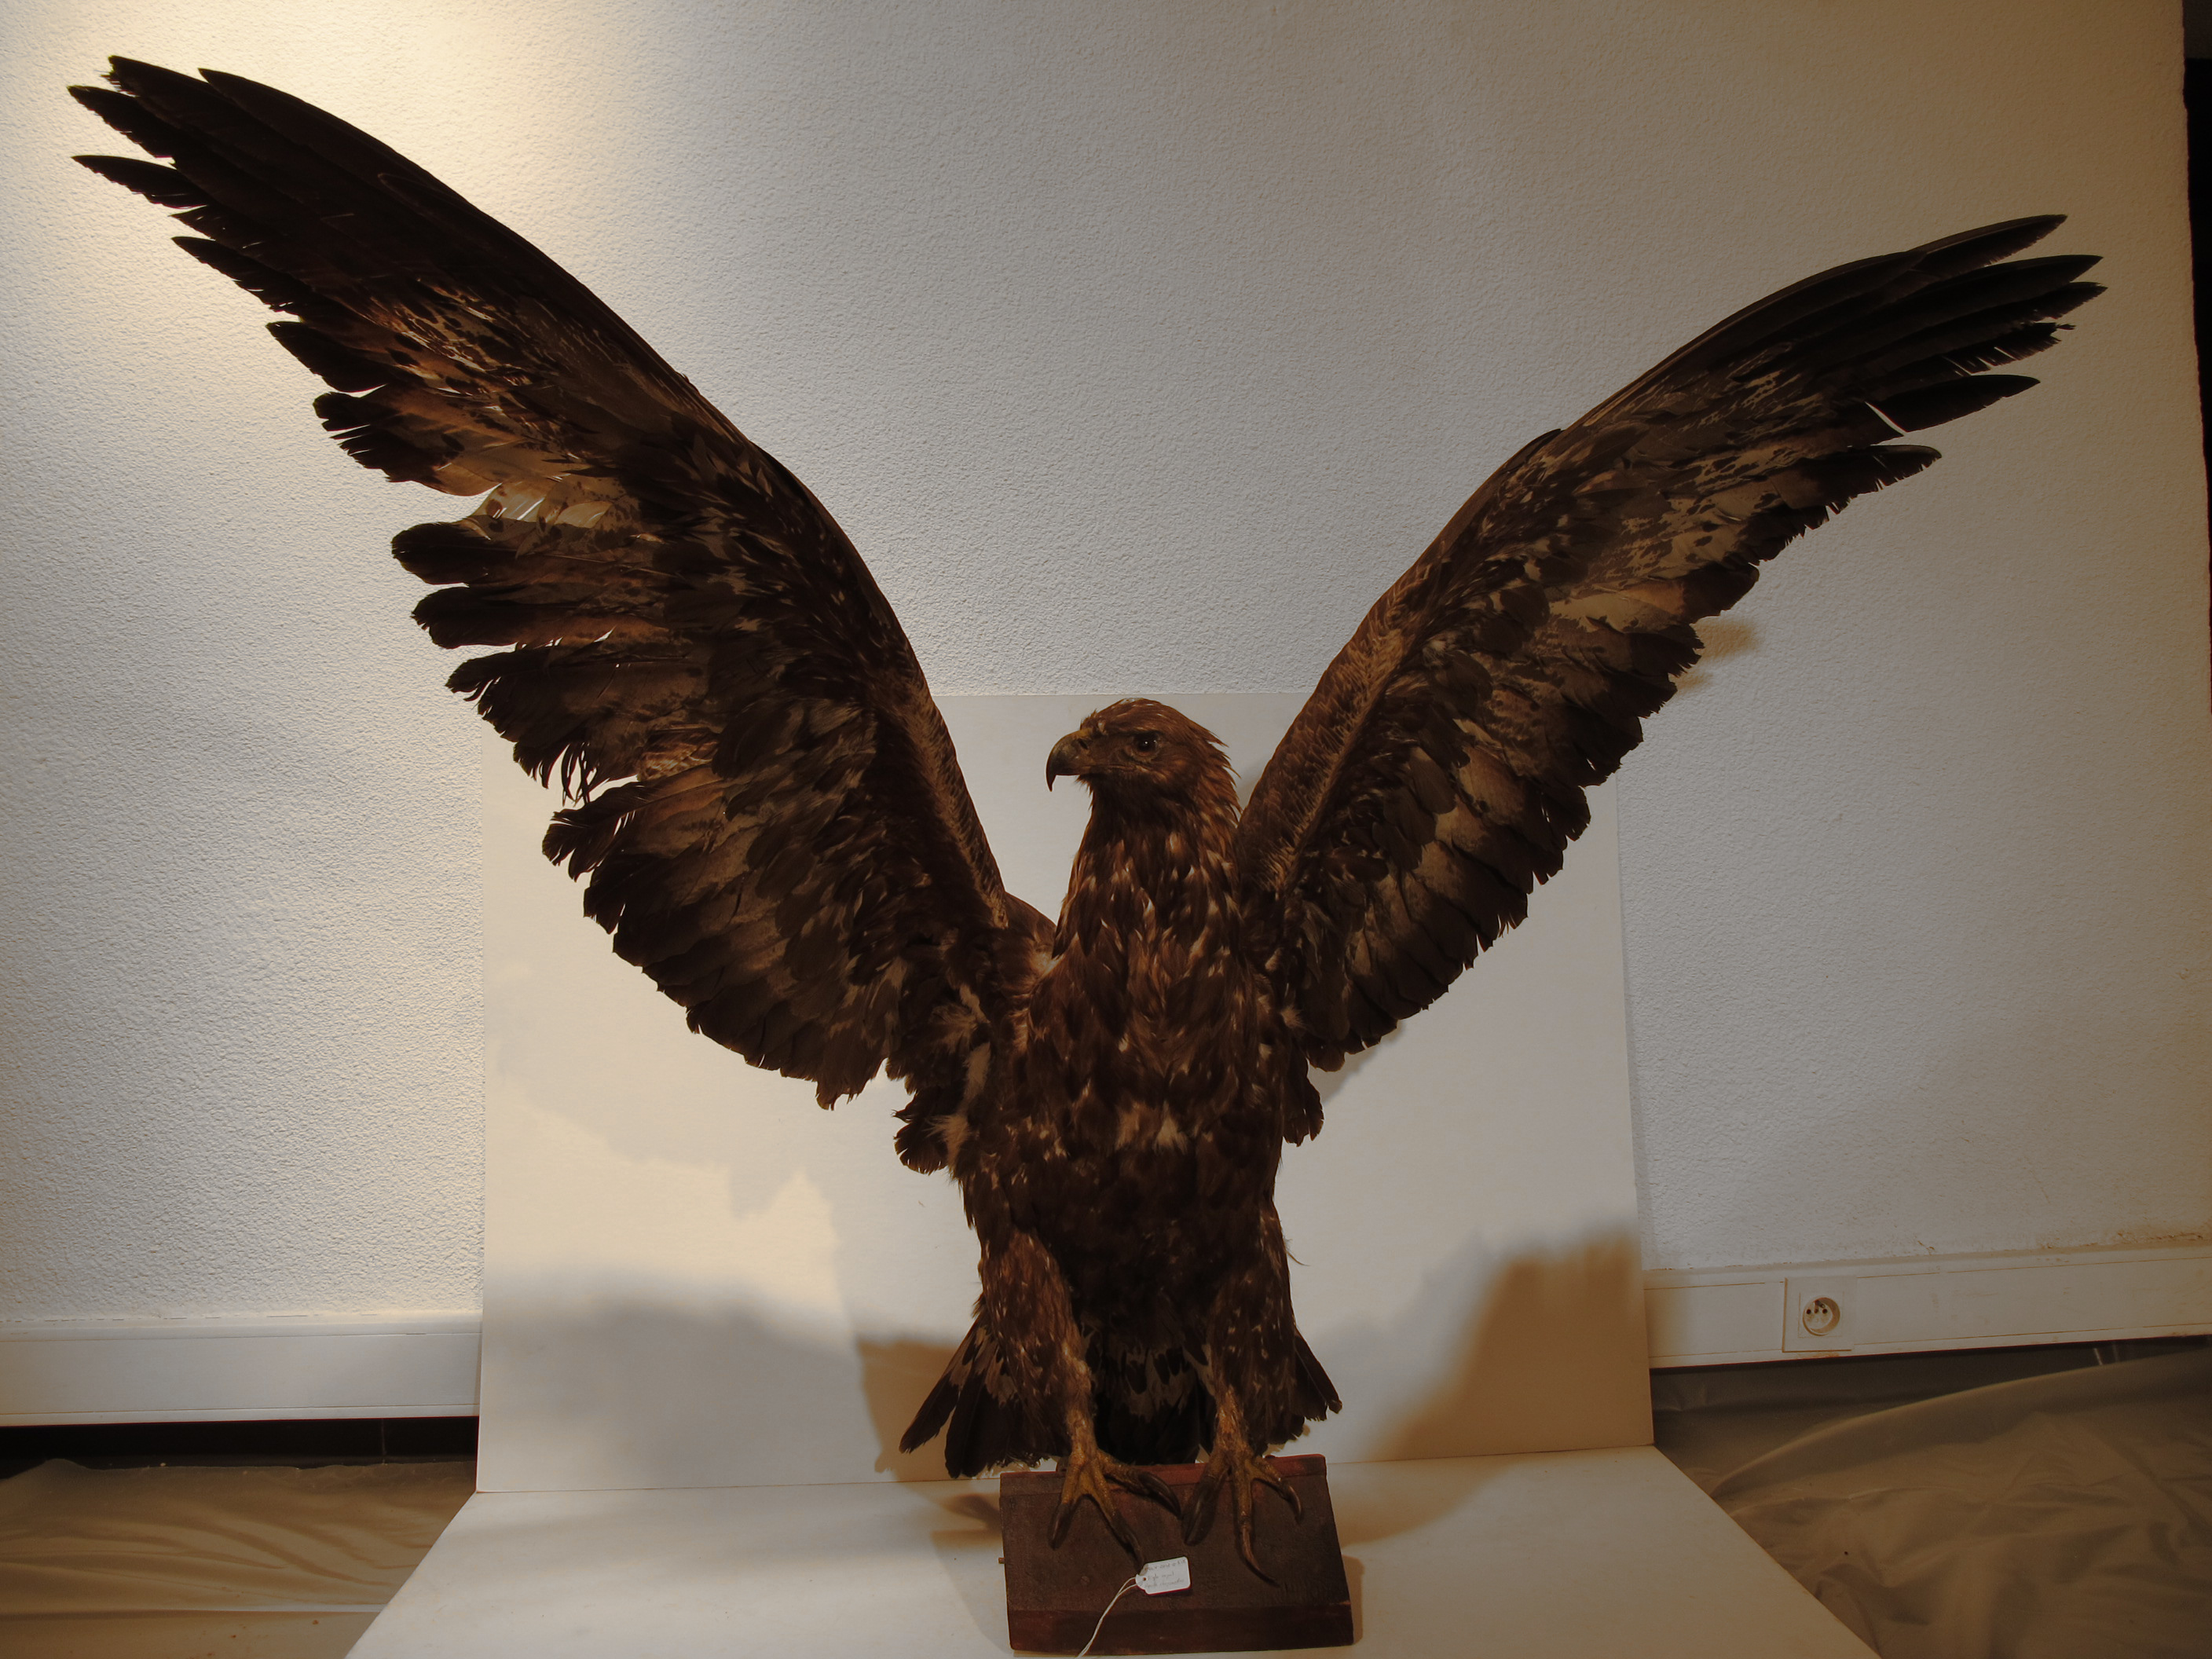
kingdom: Animalia
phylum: Chordata
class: Aves
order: Accipitriformes
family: Accipitridae
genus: Aquila
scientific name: Aquila chrysaetos
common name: Golden Eagle
